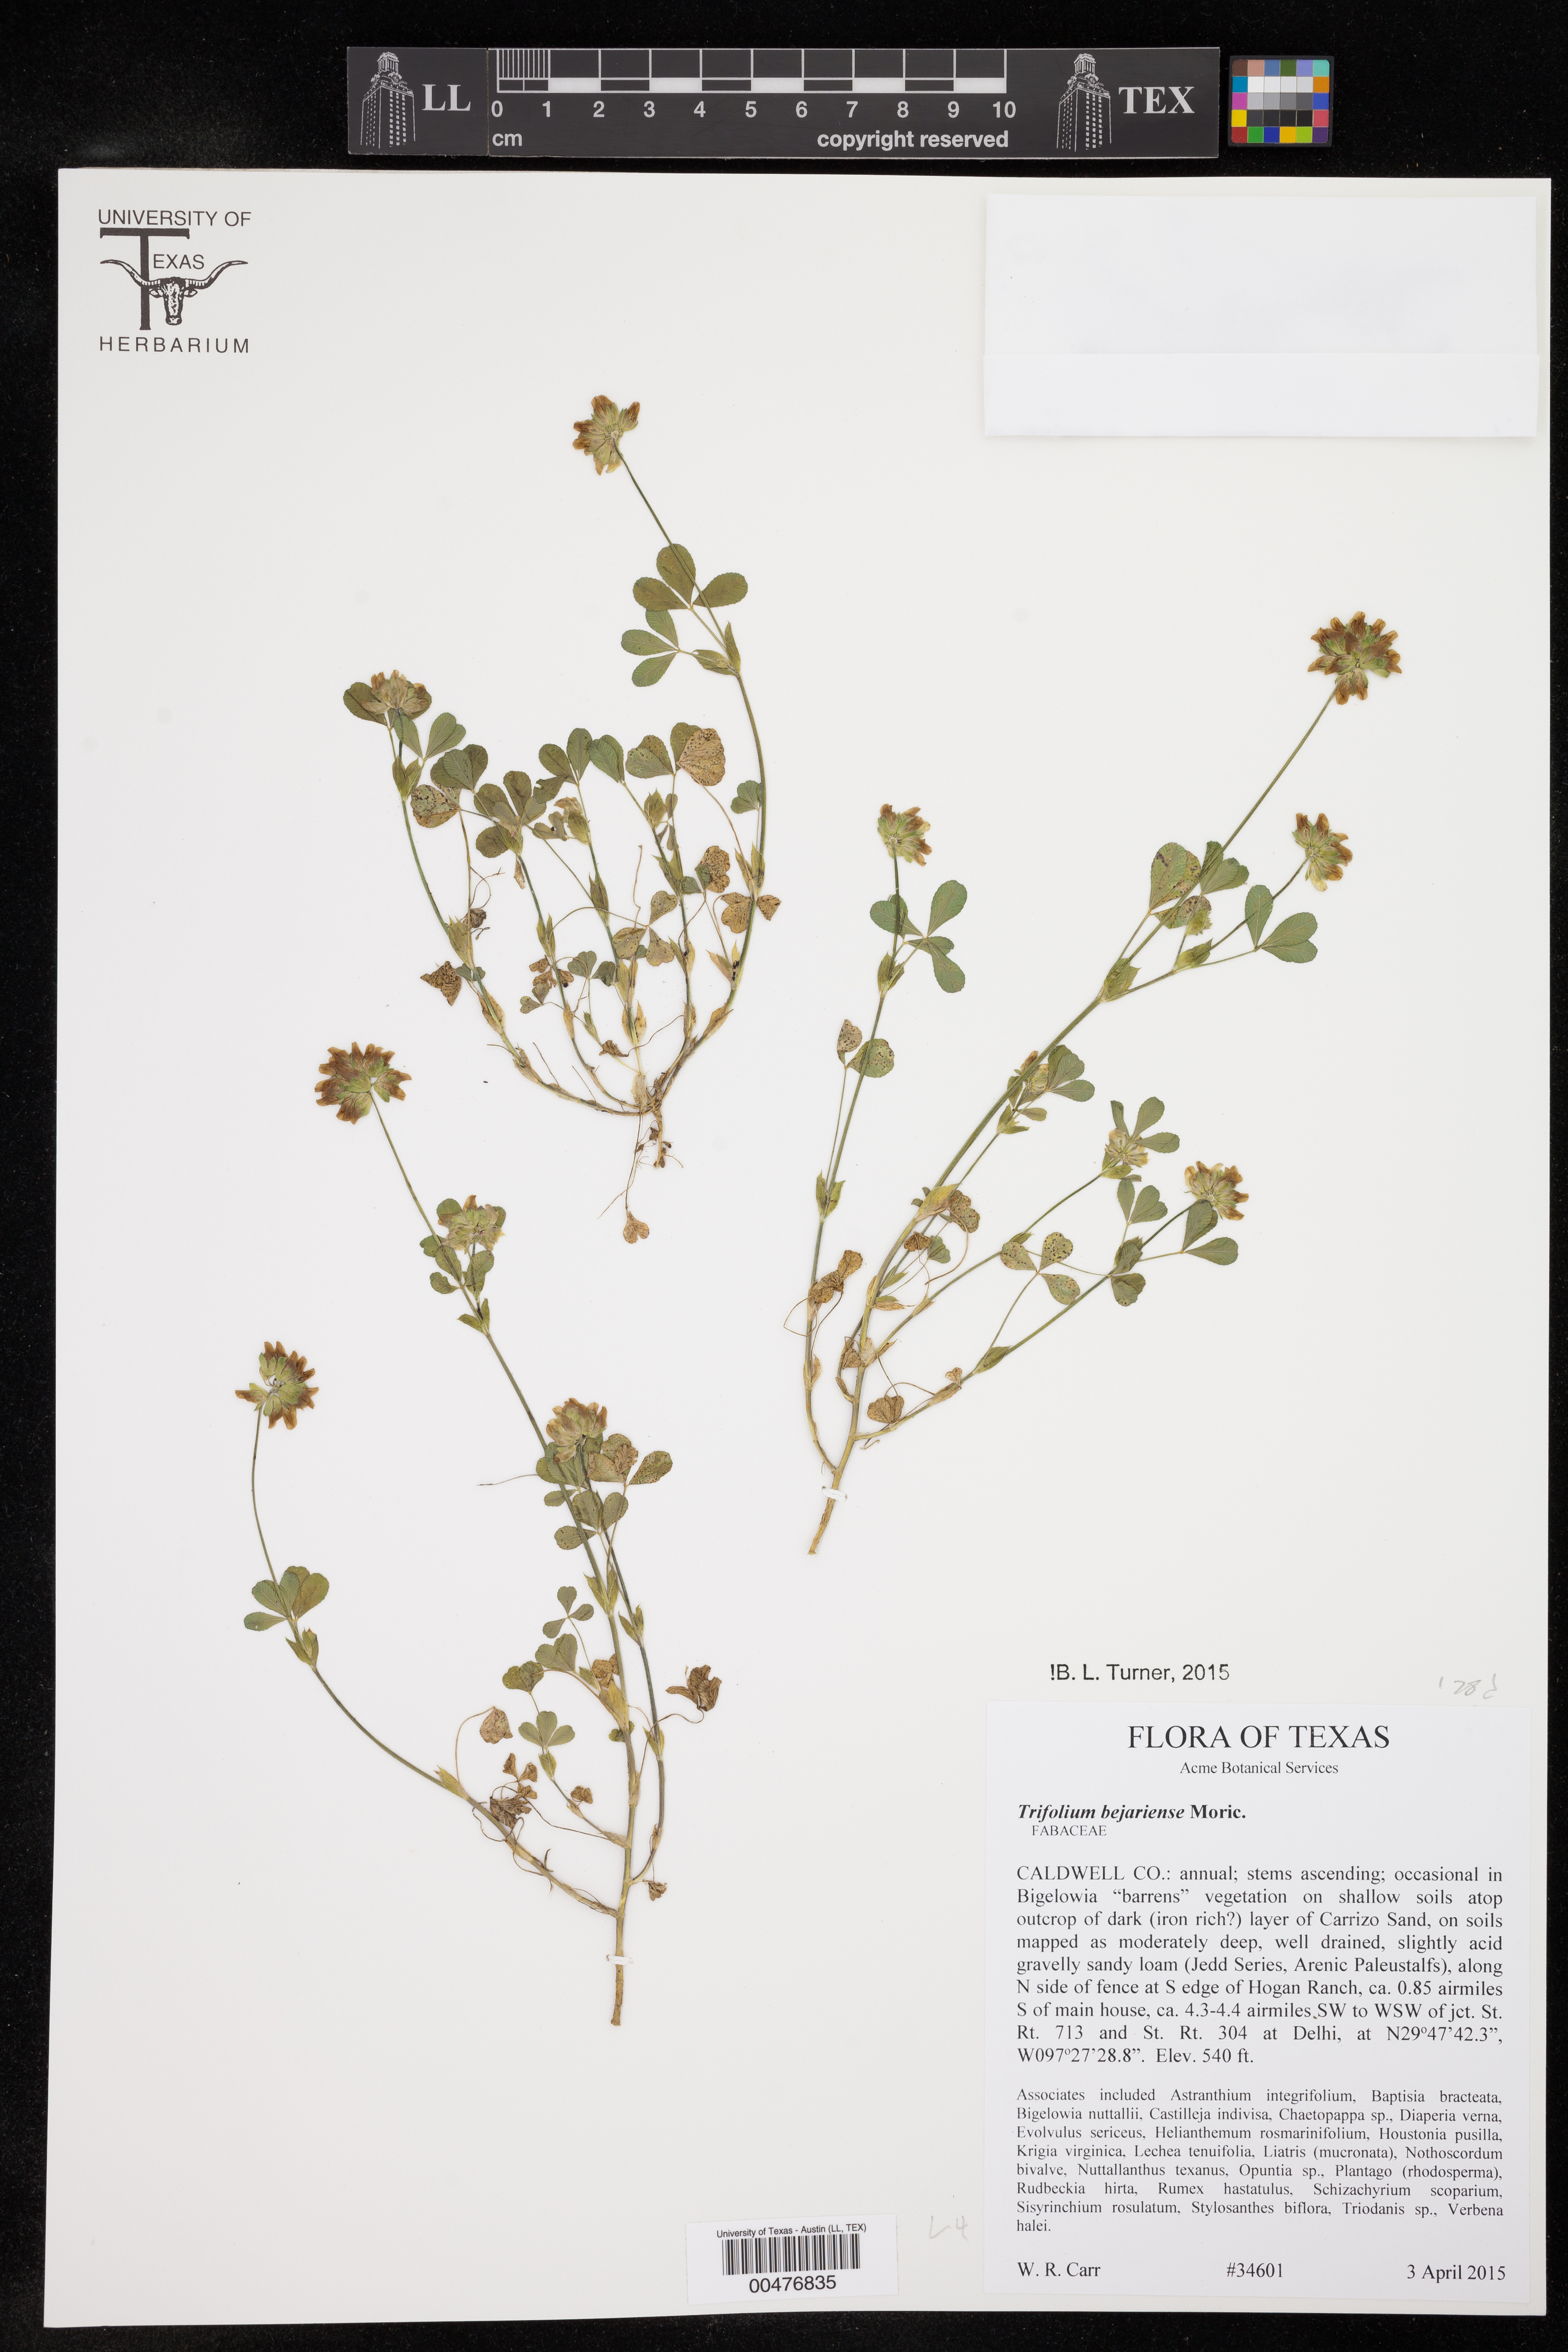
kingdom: Plantae
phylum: Tracheophyta
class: Magnoliopsida
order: Fabales
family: Fabaceae
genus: Trifolium
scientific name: Trifolium bejariense
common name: Bejar clover
